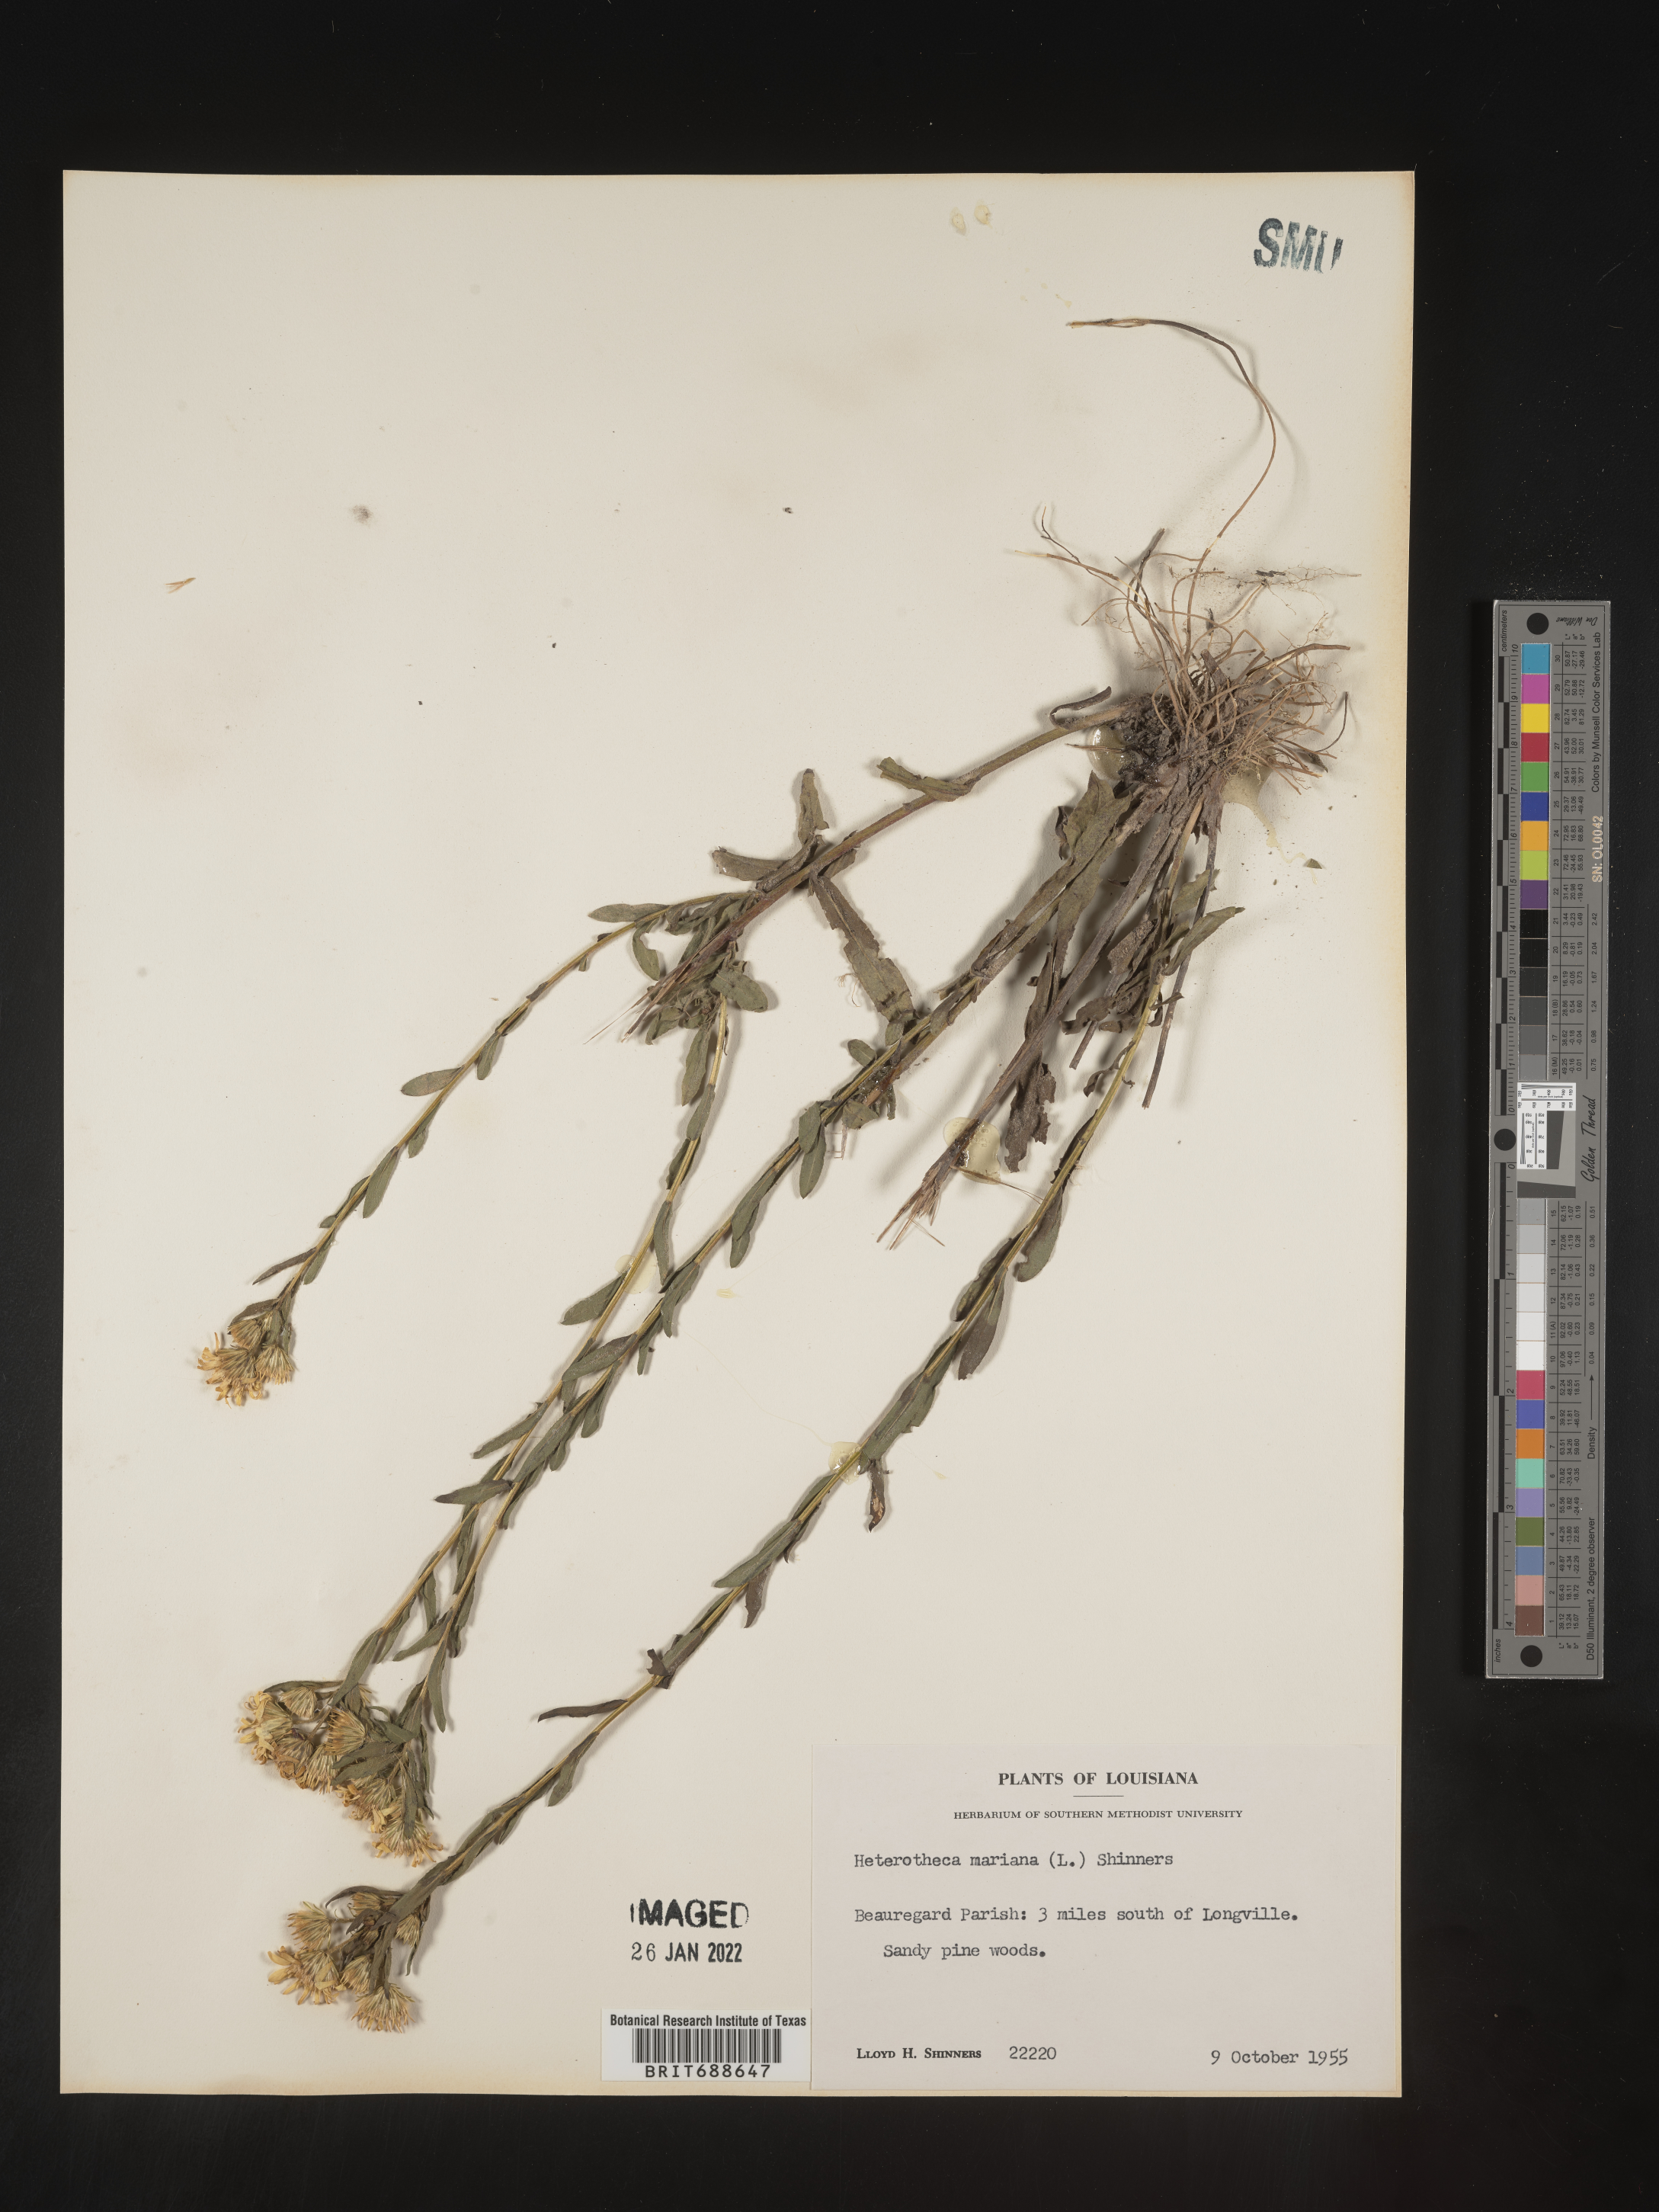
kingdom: Plantae
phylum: Tracheophyta
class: Magnoliopsida
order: Asterales
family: Asteraceae
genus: Chrysopsis
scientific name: Chrysopsis mariana
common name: Maryland golden-aster
